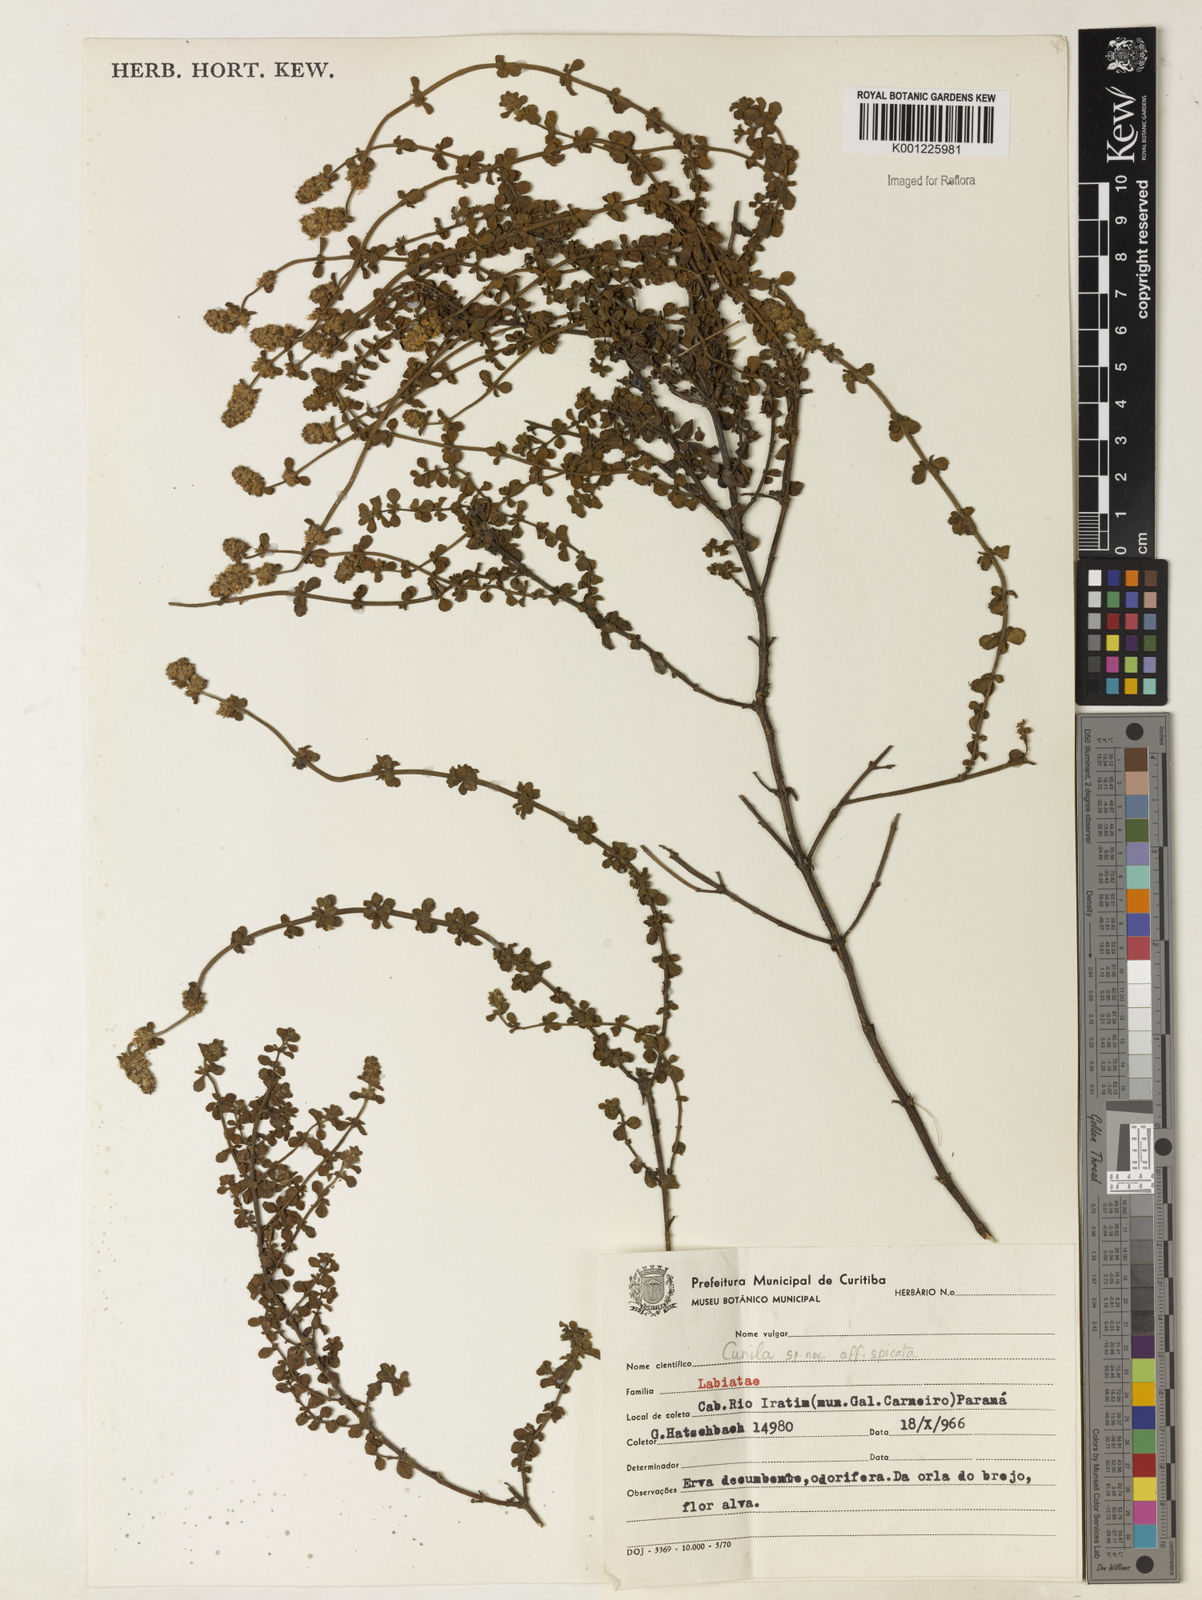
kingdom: Plantae
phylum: Tracheophyta
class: Magnoliopsida
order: Lamiales
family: Lamiaceae
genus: Cunila
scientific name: Cunila spicata
